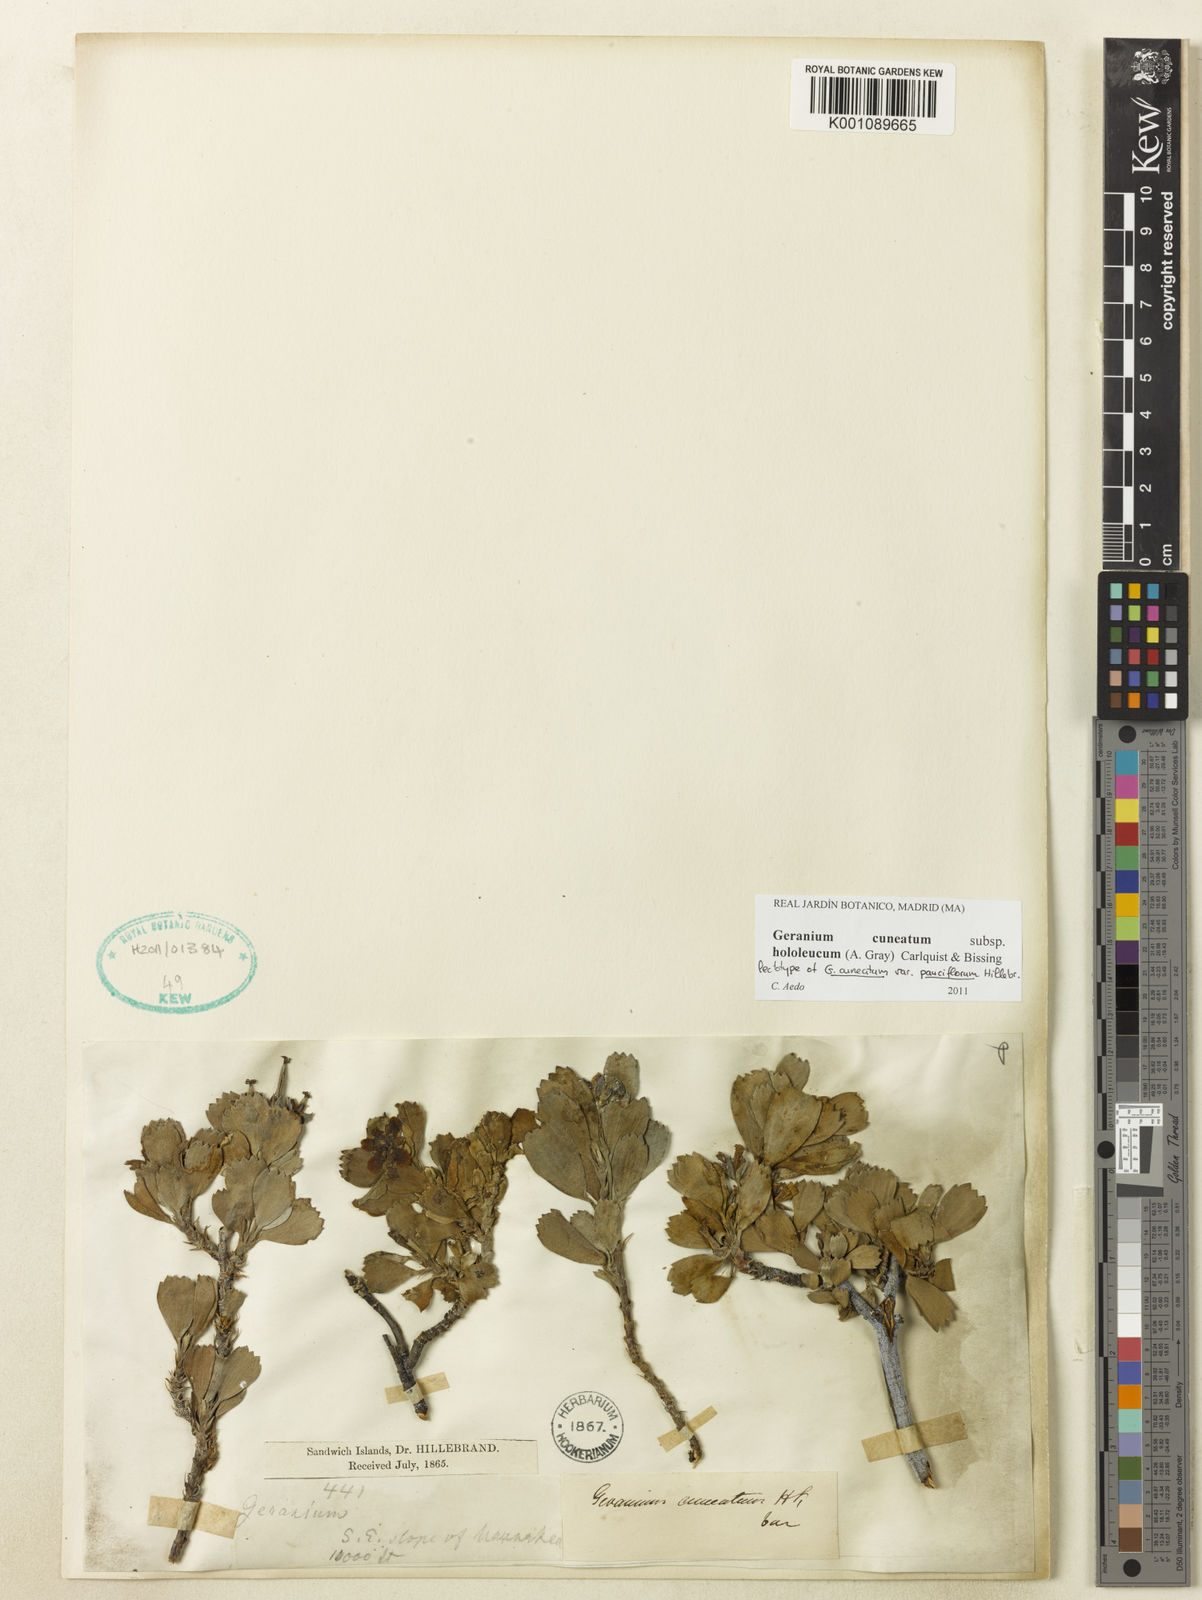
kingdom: Plantae
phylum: Tracheophyta
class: Magnoliopsida
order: Geraniales
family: Geraniaceae
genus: Geranium
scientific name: Geranium cuneatum
